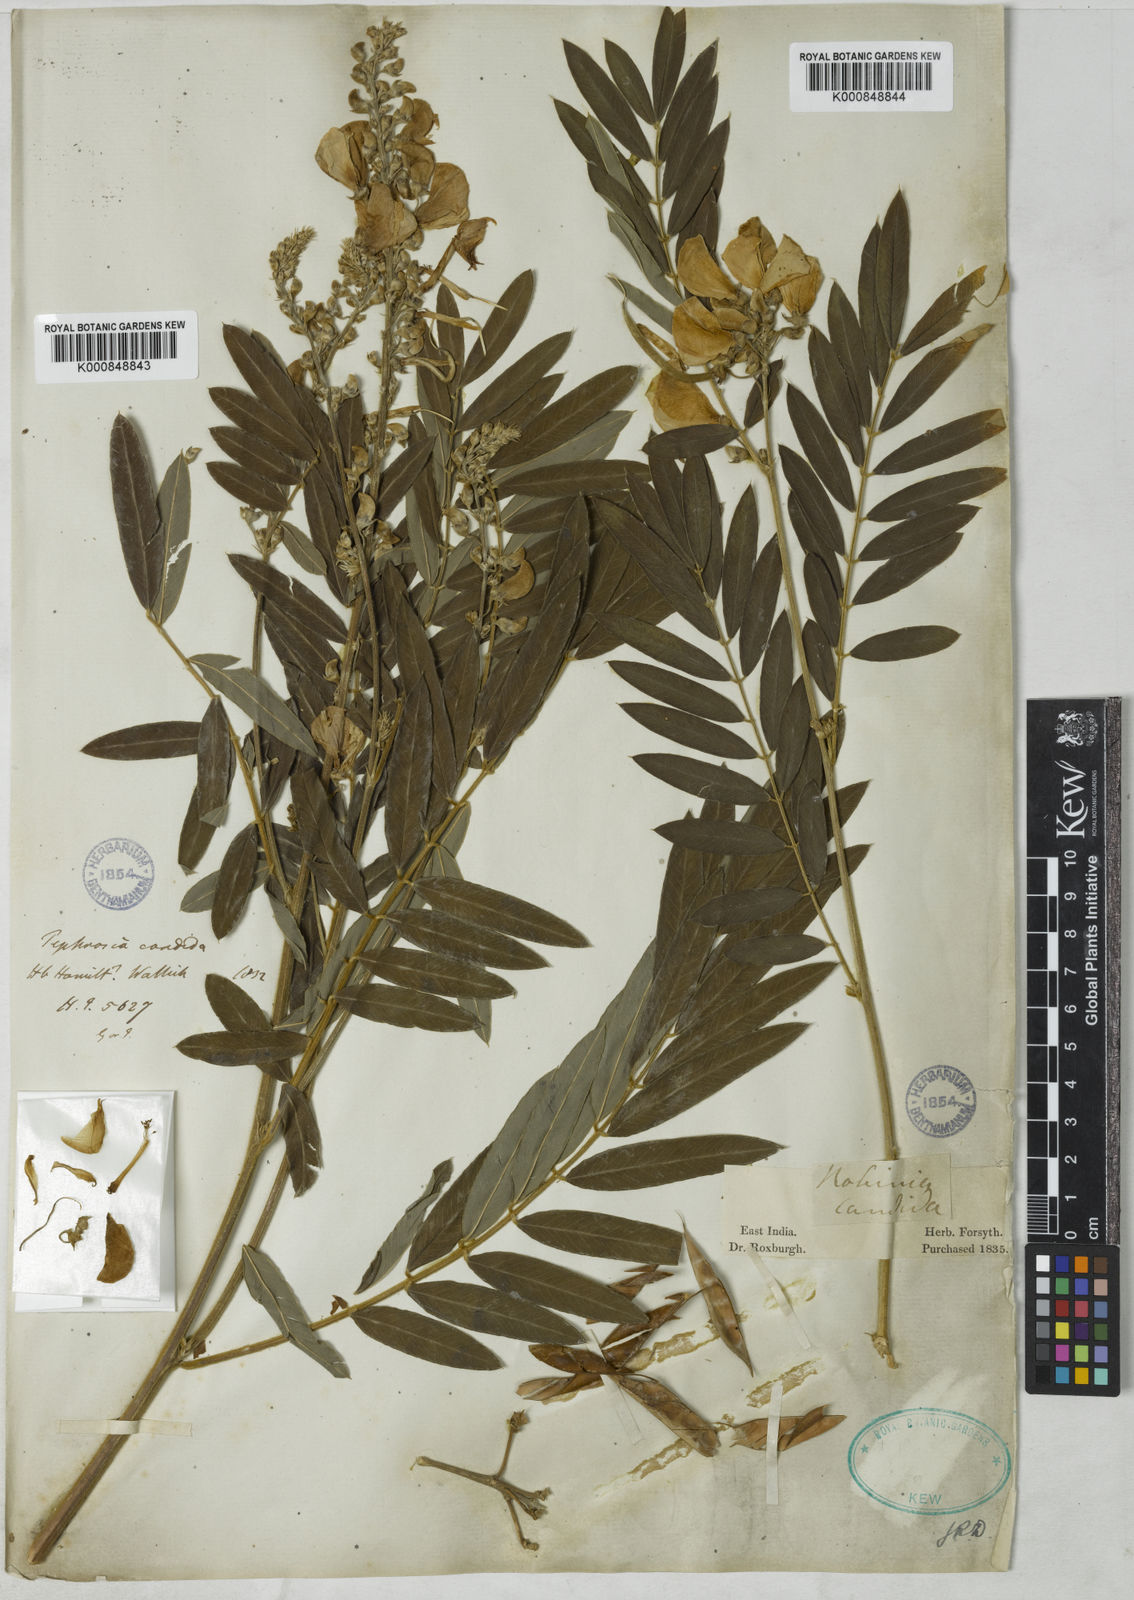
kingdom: Plantae
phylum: Tracheophyta
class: Magnoliopsida
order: Fabales
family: Fabaceae
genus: Tephrosia
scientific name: Tephrosia candida
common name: White tephrosia
